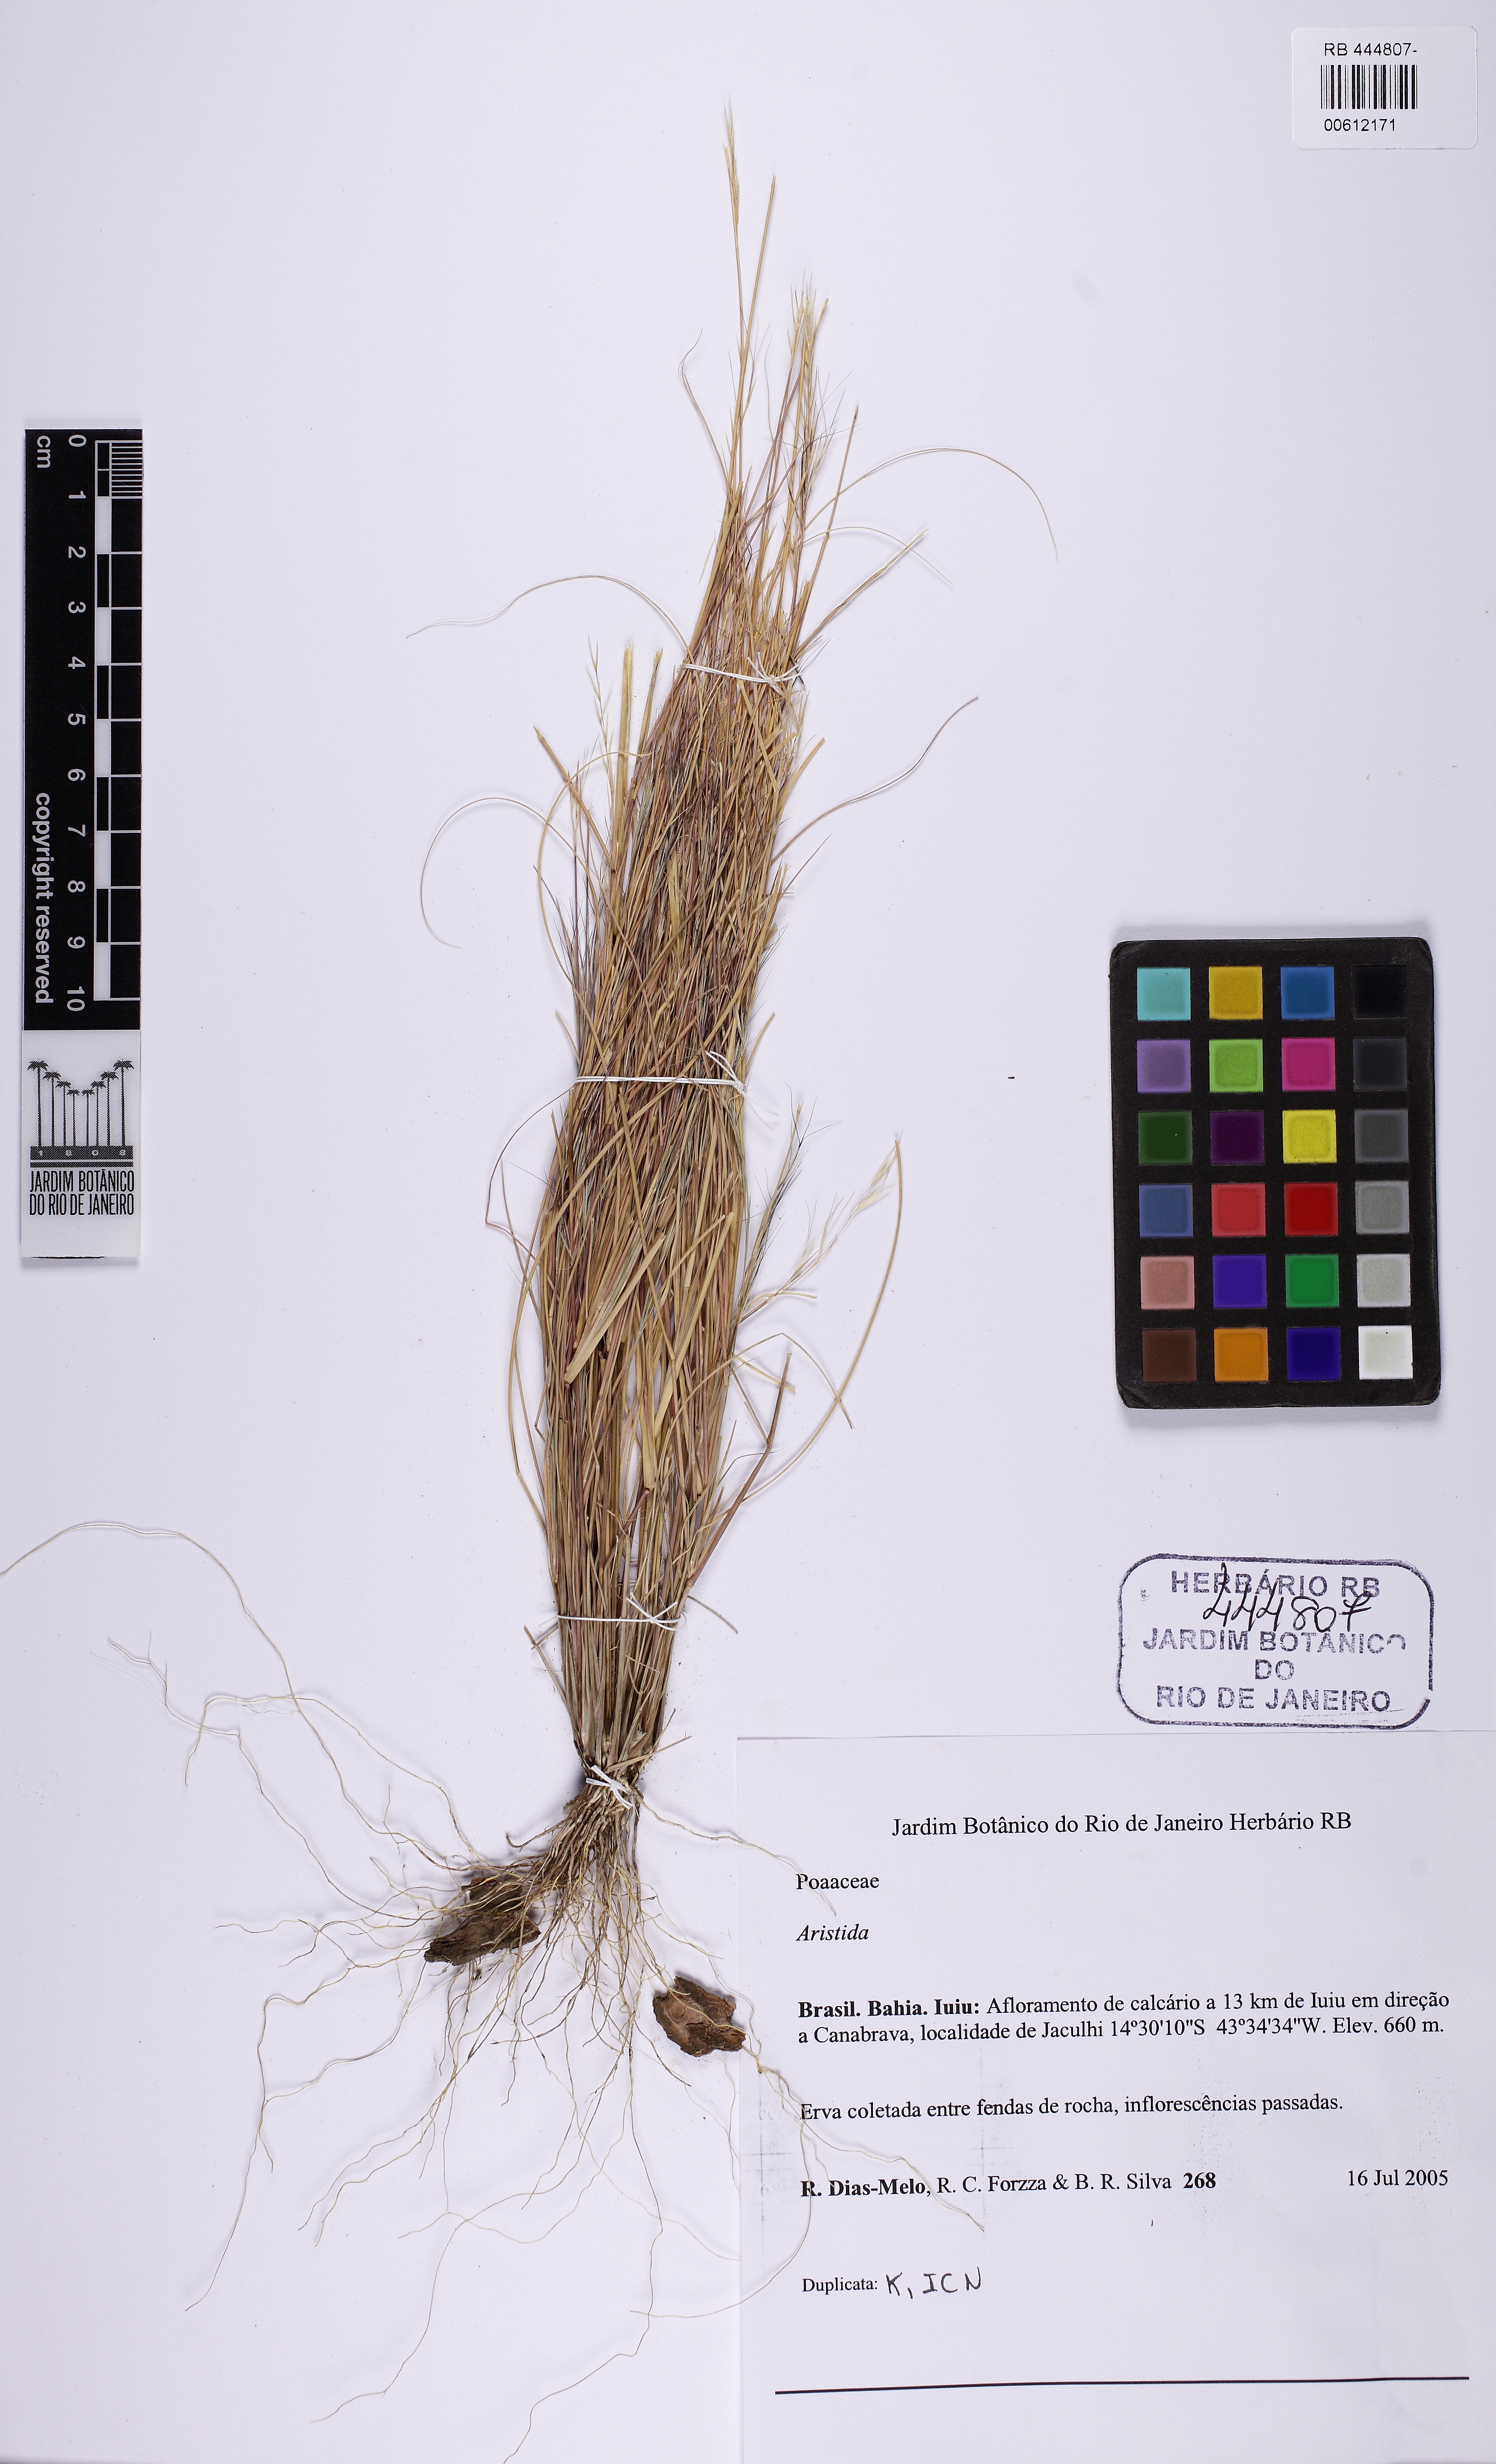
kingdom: Plantae
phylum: Tracheophyta
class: Liliopsida
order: Poales
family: Poaceae
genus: Aristida
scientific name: Aristida
